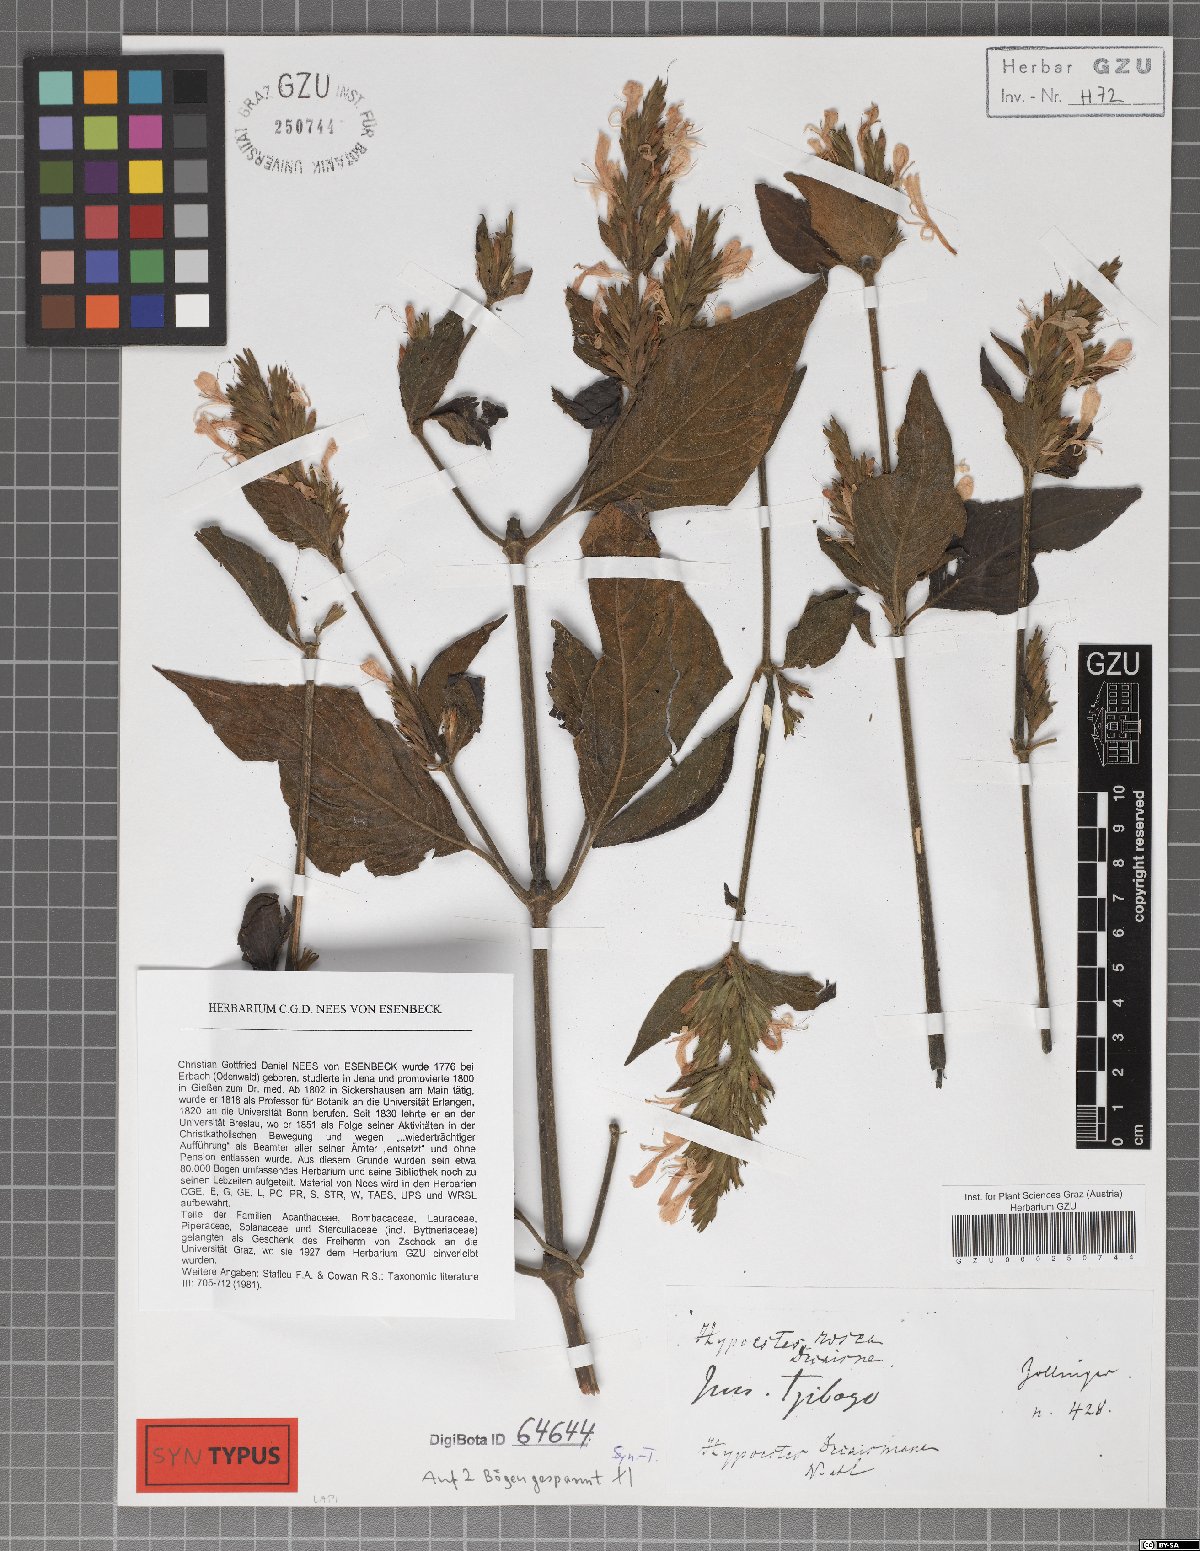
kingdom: Plantae
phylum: Tracheophyta
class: Magnoliopsida
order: Lamiales
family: Acanthaceae
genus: Hypoestes
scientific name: Hypoestes decaisneana
